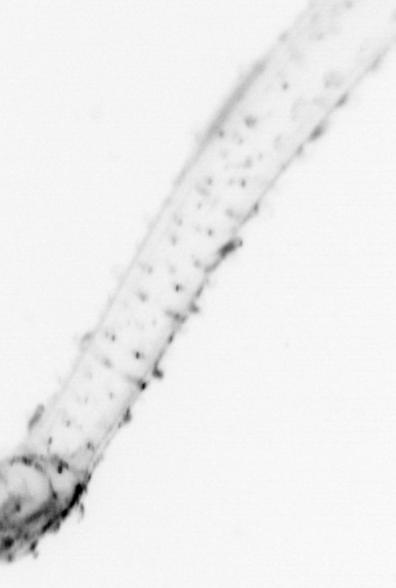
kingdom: Animalia
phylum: Chaetognatha
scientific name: Chaetognatha
